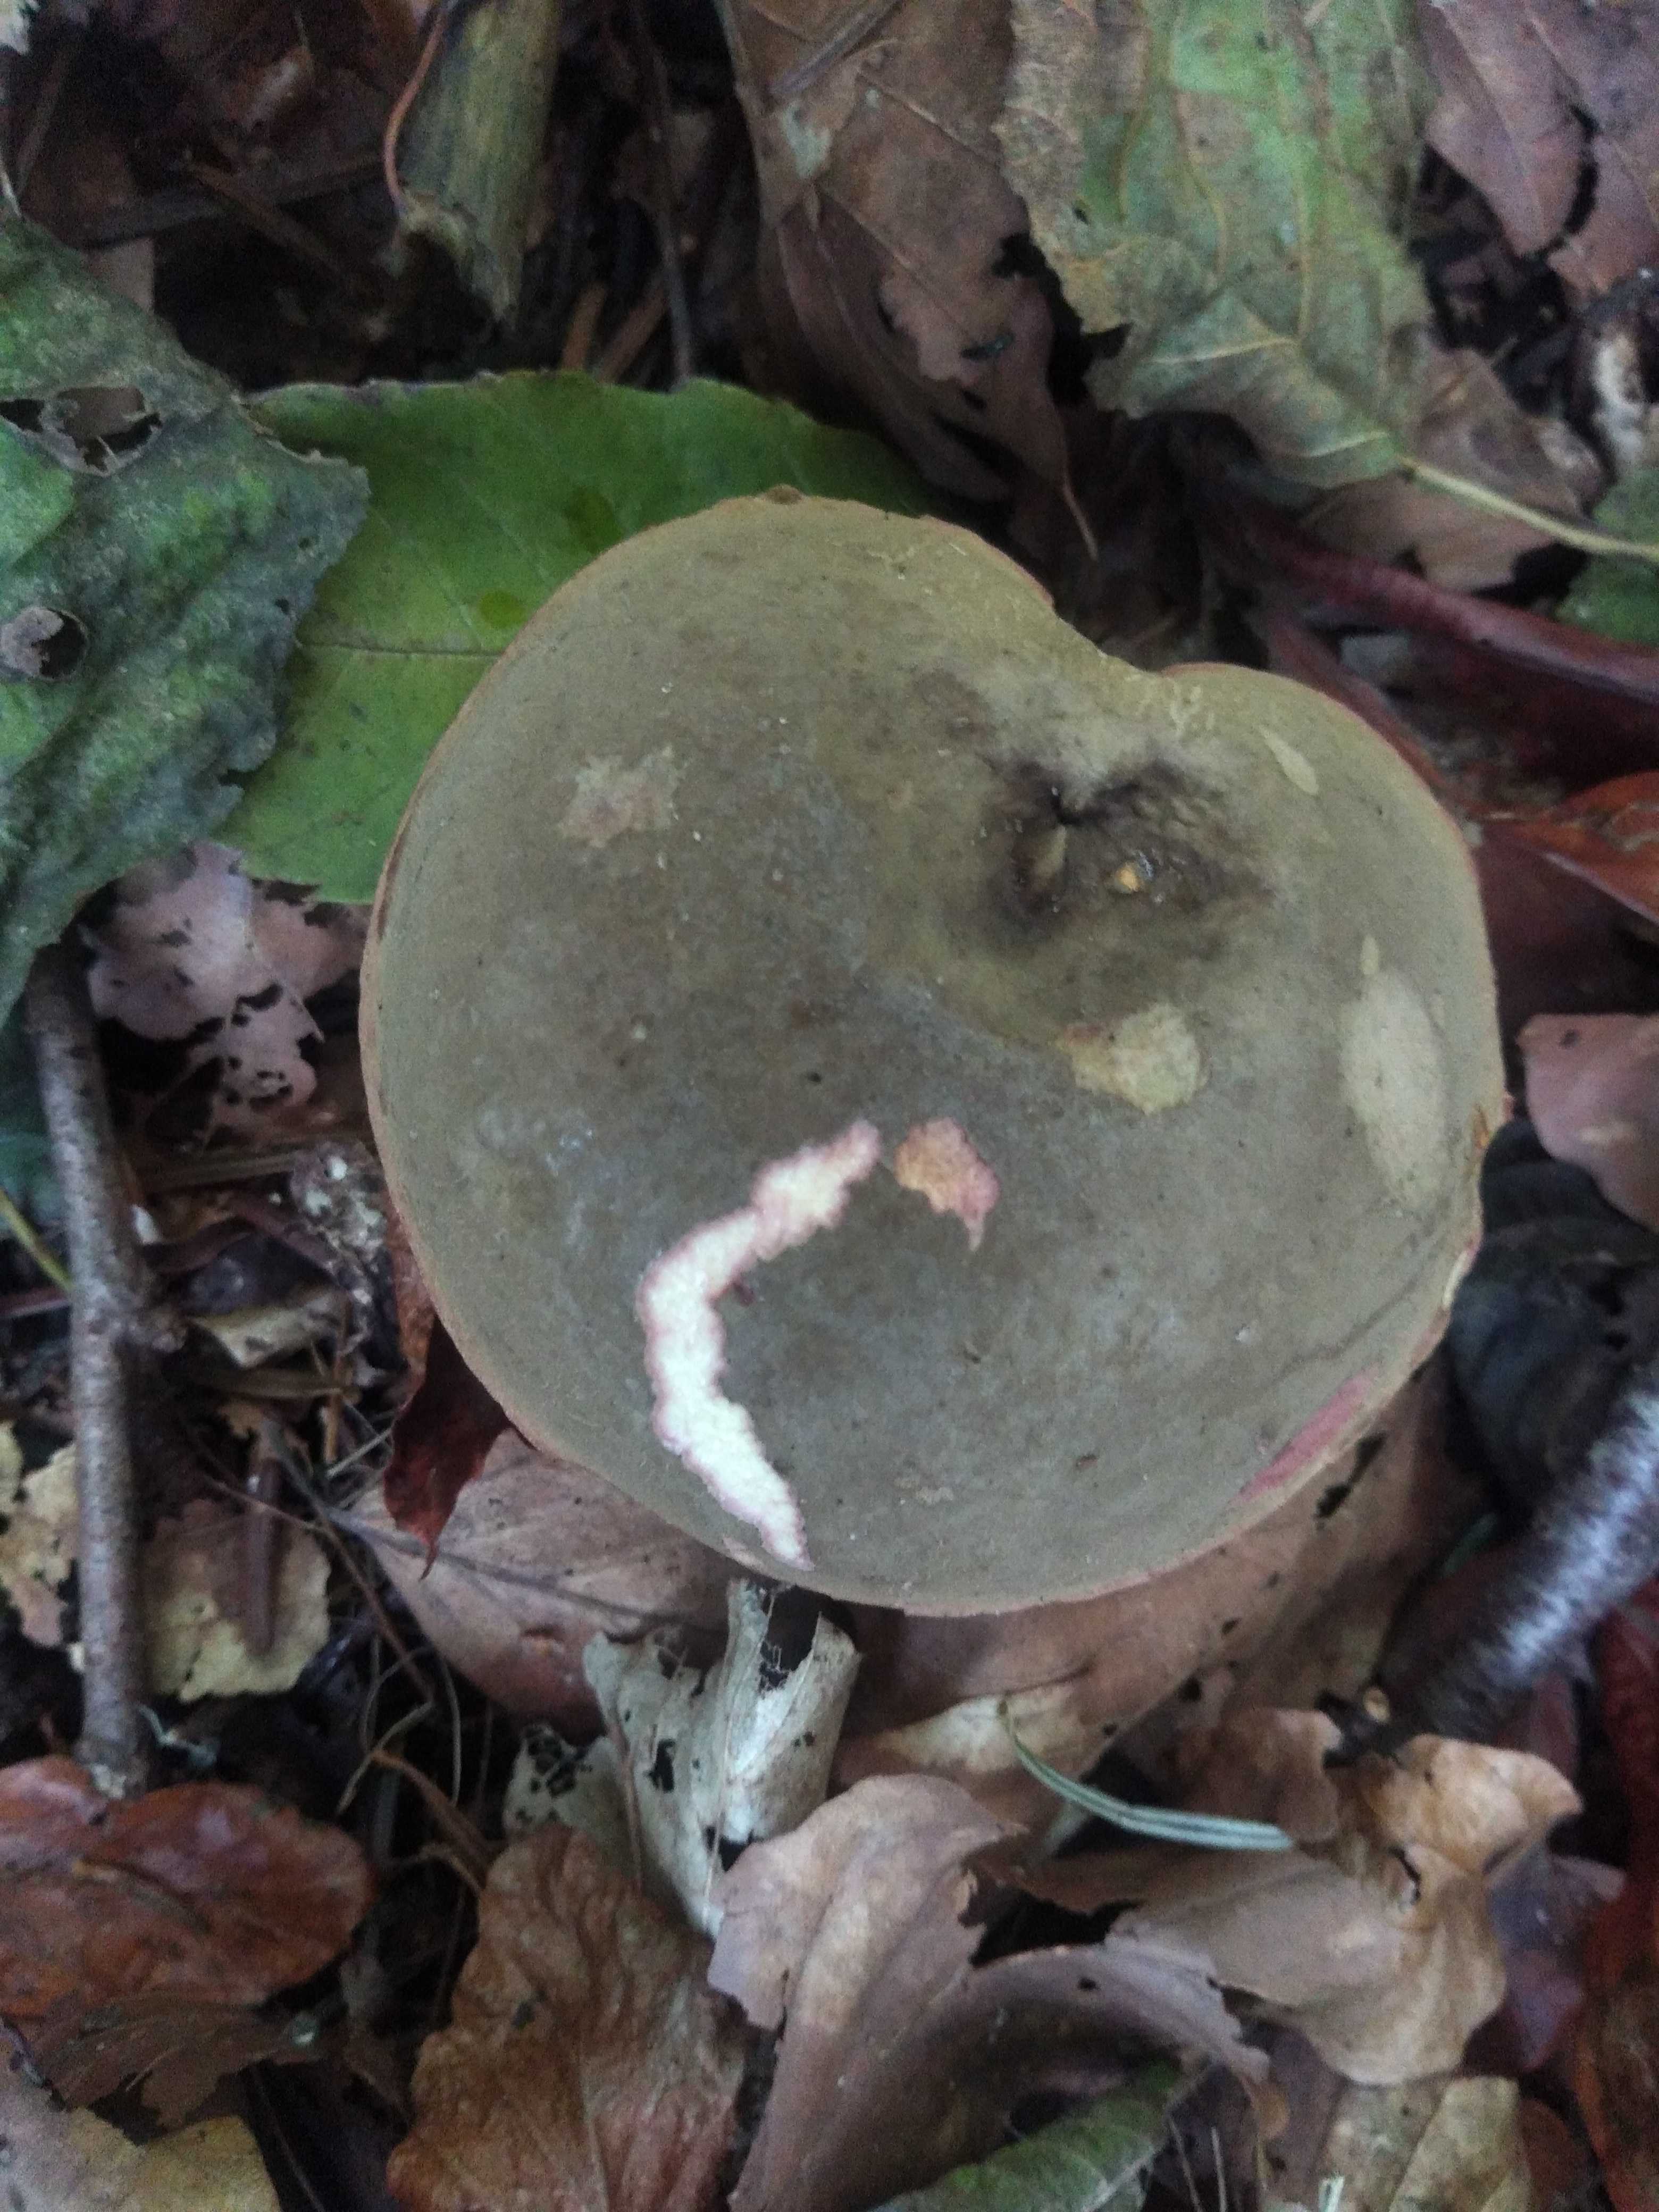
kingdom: Fungi
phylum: Basidiomycota
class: Agaricomycetes
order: Boletales
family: Boletaceae
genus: Xerocomellus
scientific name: Xerocomellus cisalpinus
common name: finsprukken rørhat
